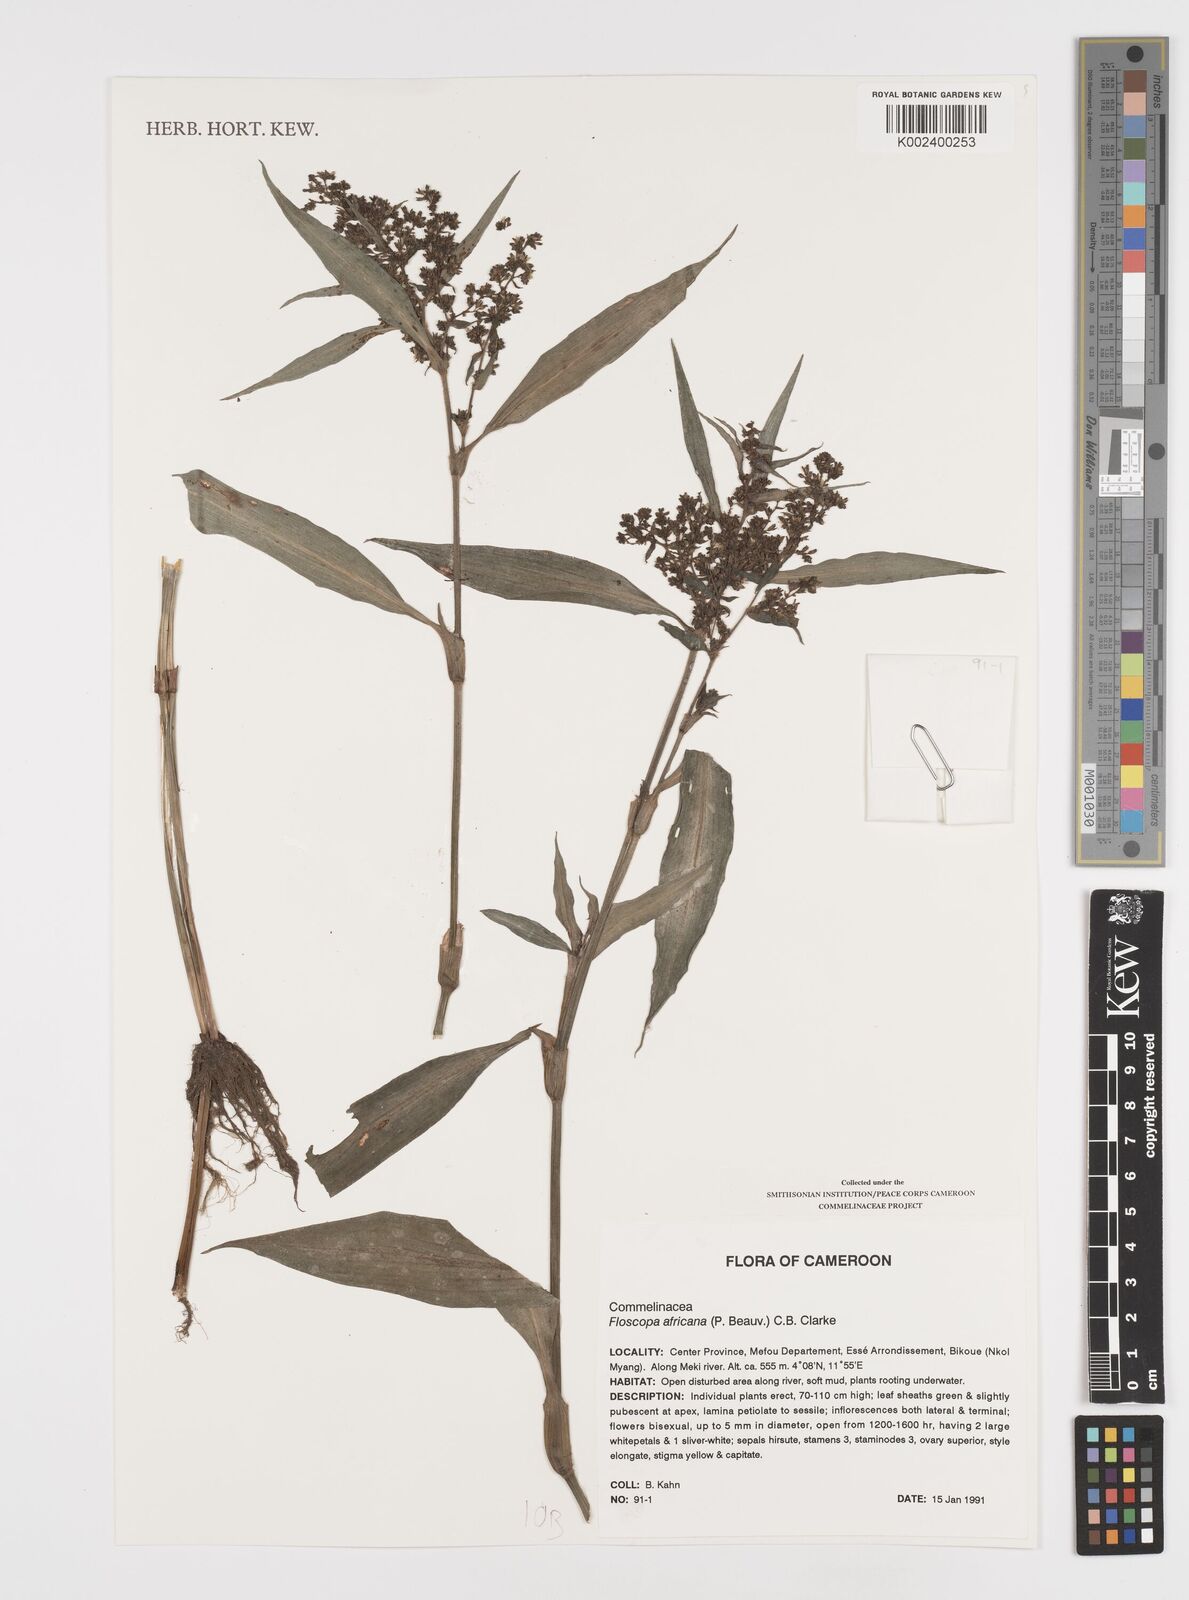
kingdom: Plantae
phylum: Tracheophyta
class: Liliopsida
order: Commelinales
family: Commelinaceae
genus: Floscopa
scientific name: Floscopa africana
